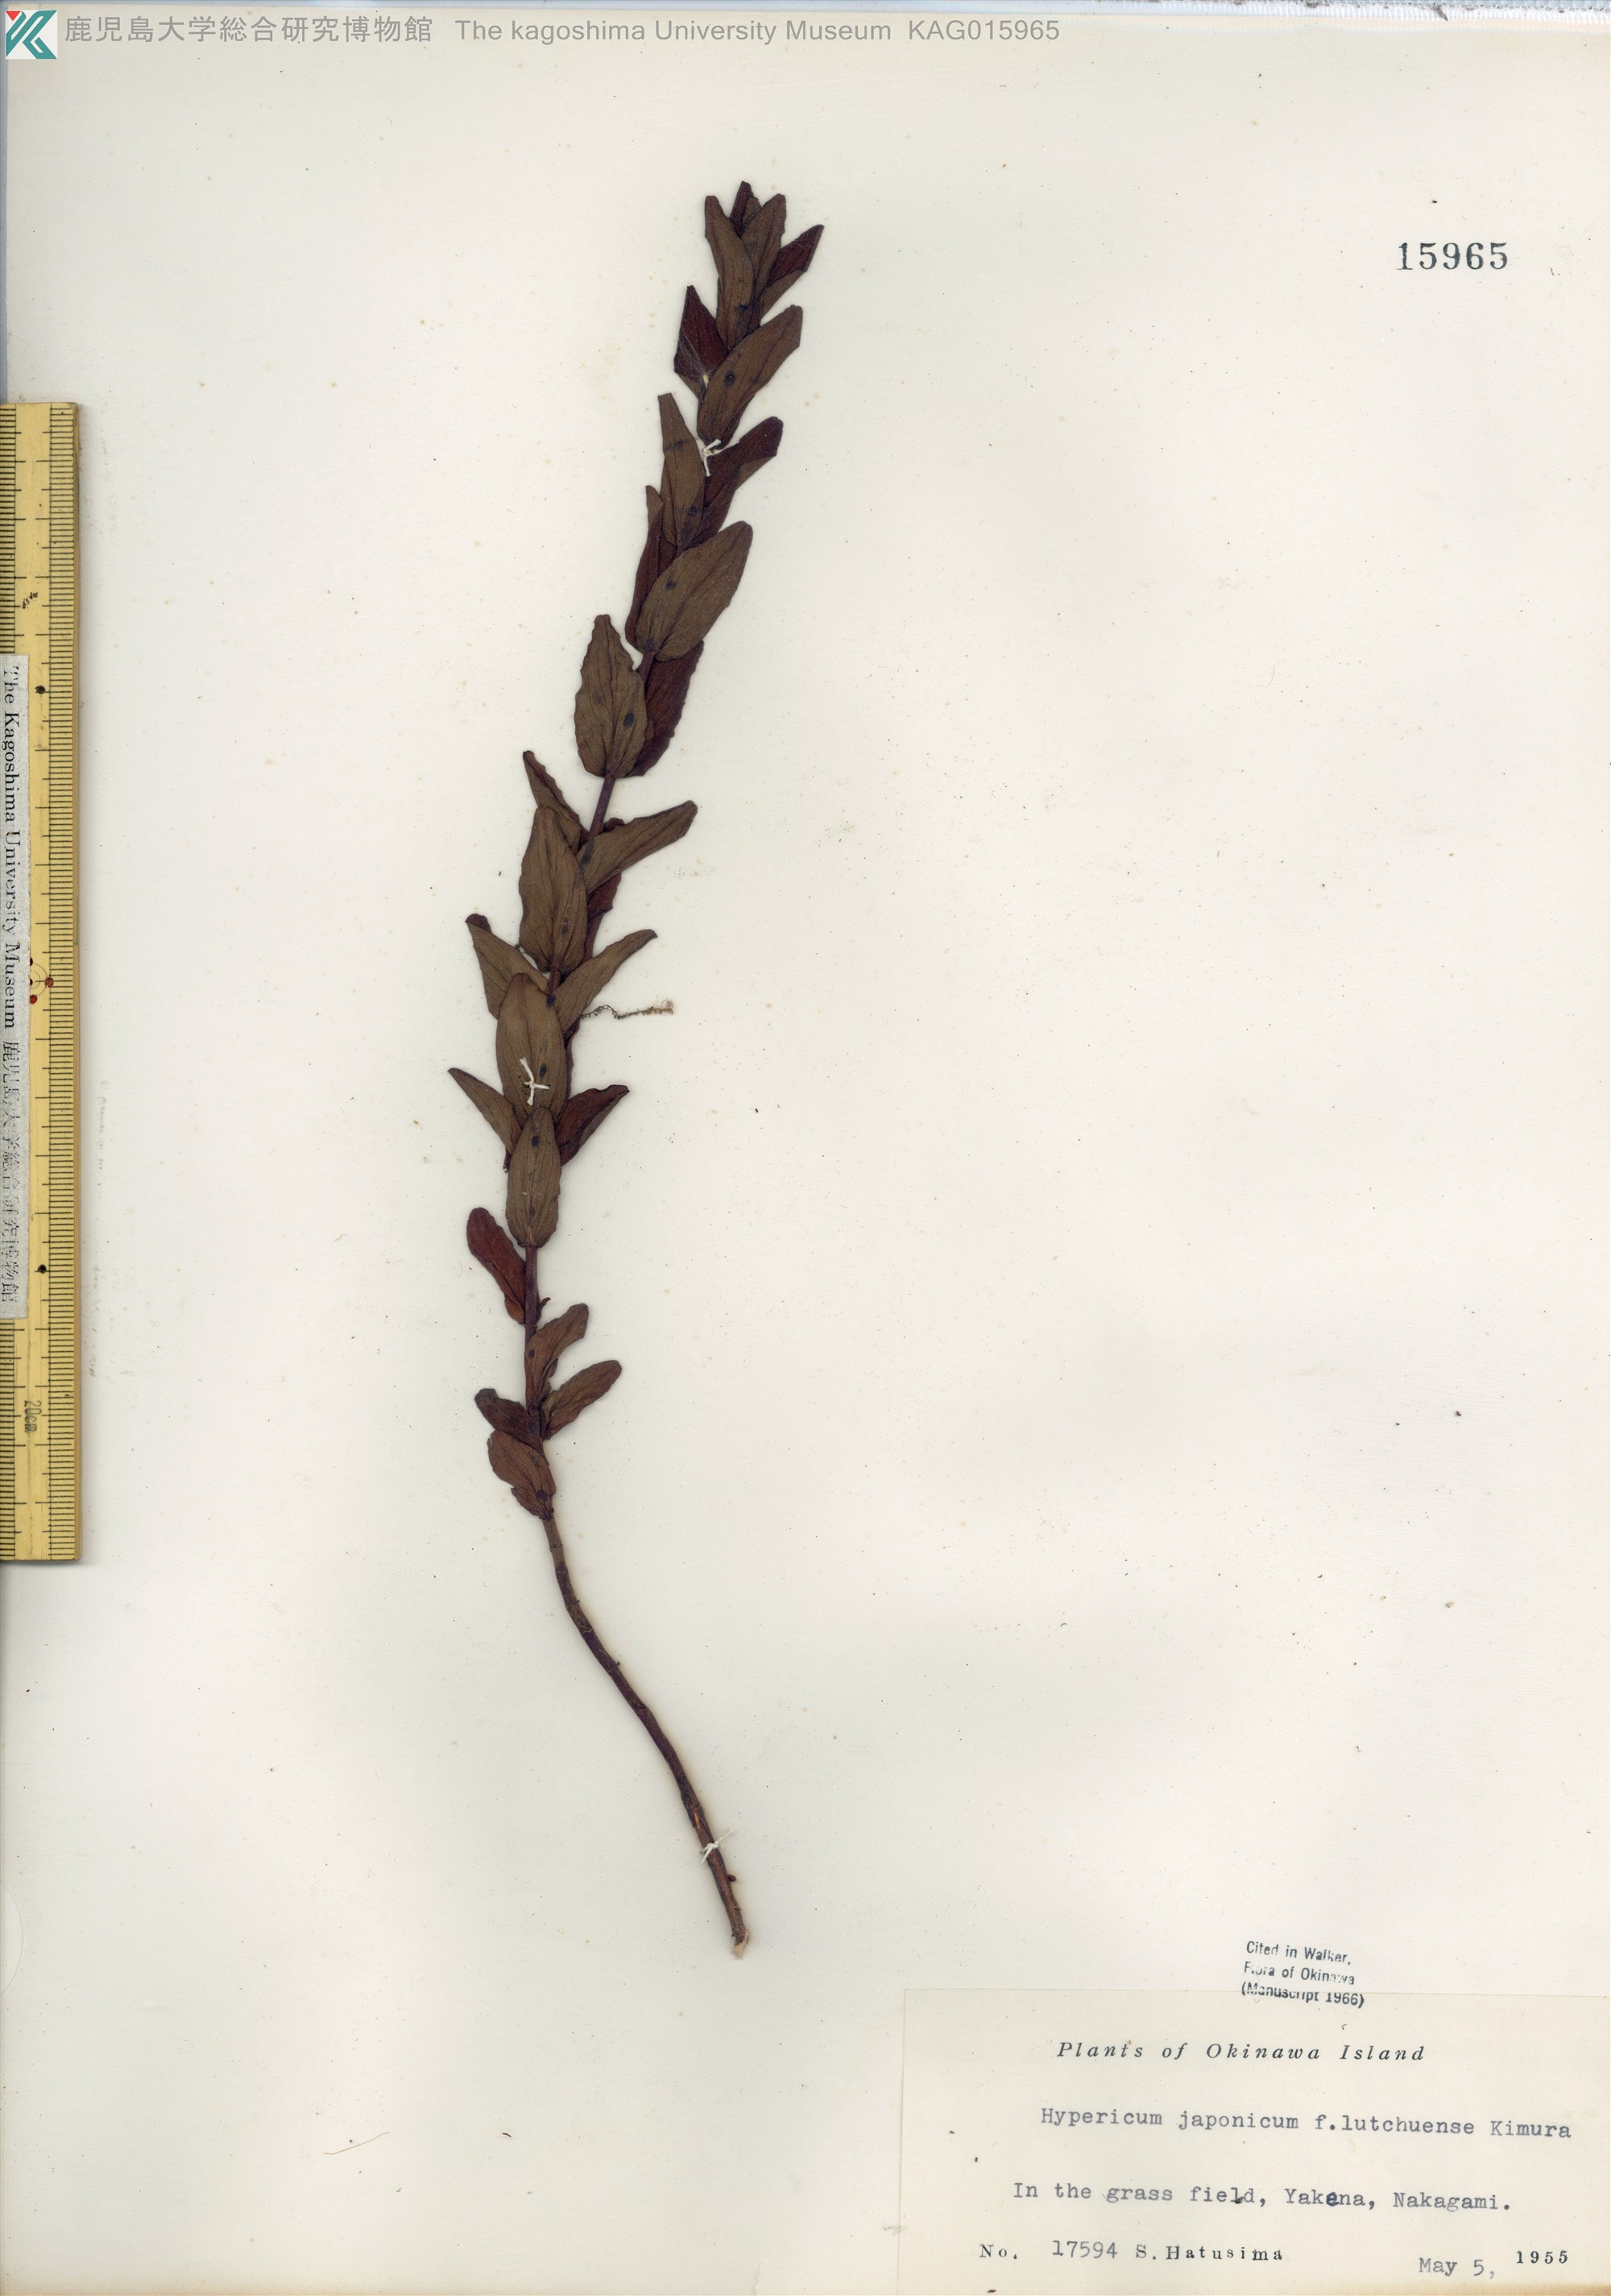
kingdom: Plantae
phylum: Tracheophyta
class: Magnoliopsida
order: Malpighiales
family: Hypericaceae
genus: Hypericum
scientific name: Hypericum erectum
